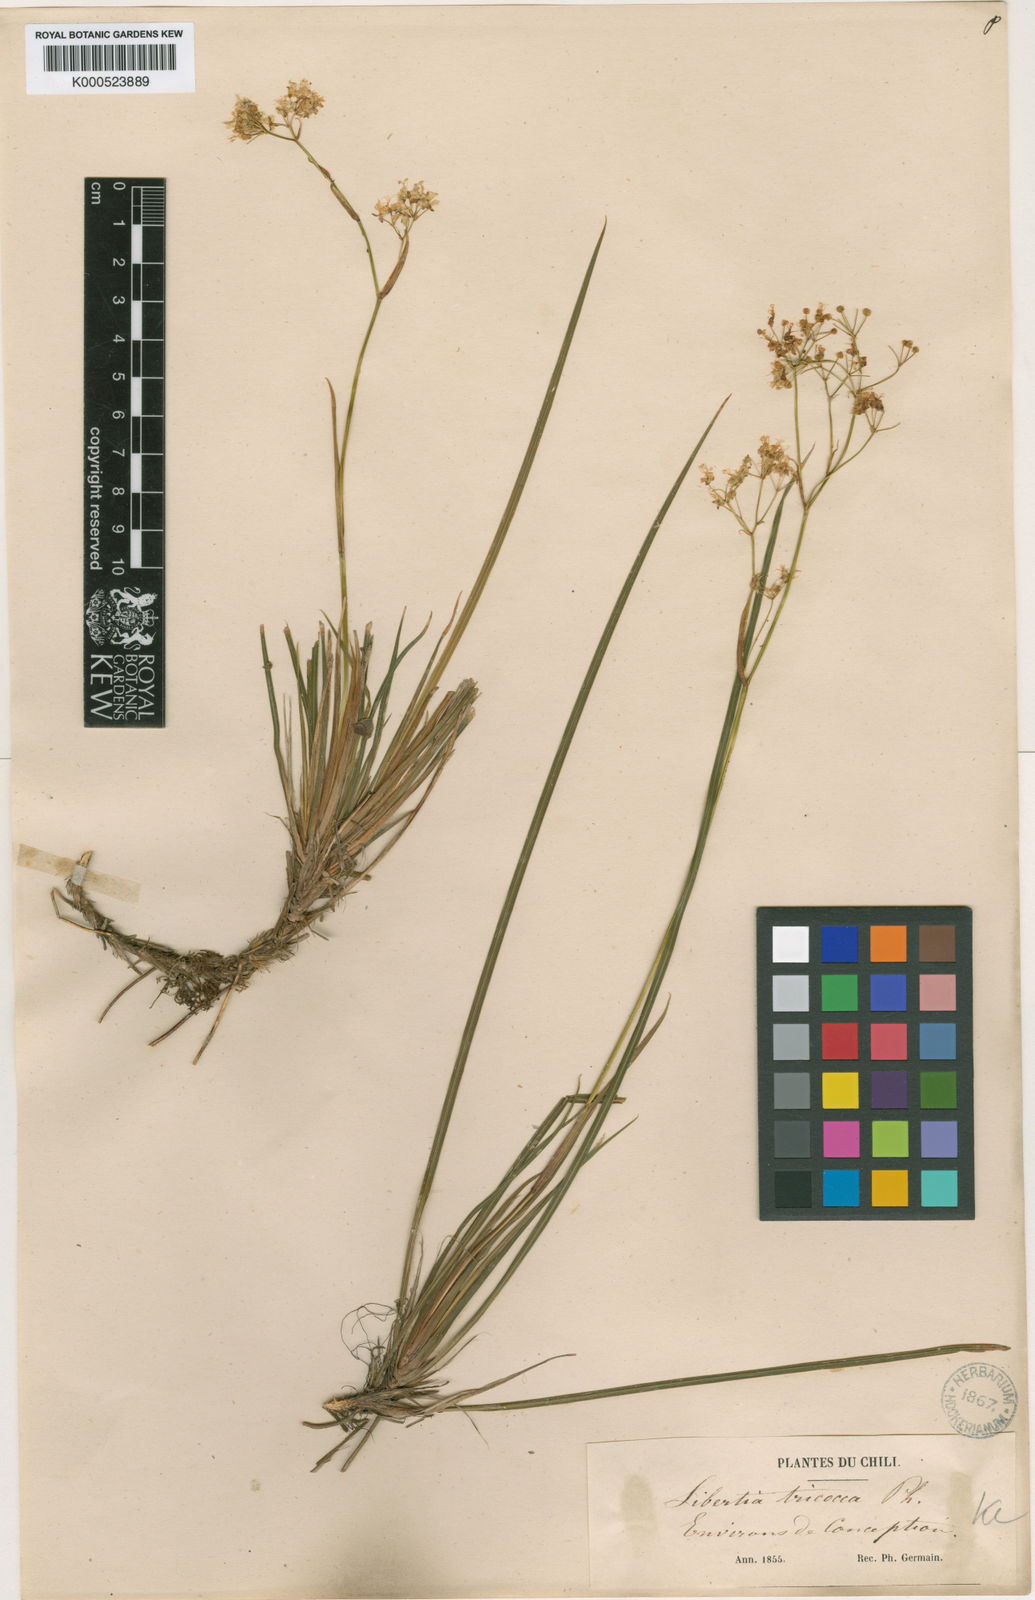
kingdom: Plantae
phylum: Tracheophyta
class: Liliopsida
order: Asparagales
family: Iridaceae
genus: Libertia
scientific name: Libertia tricocca
